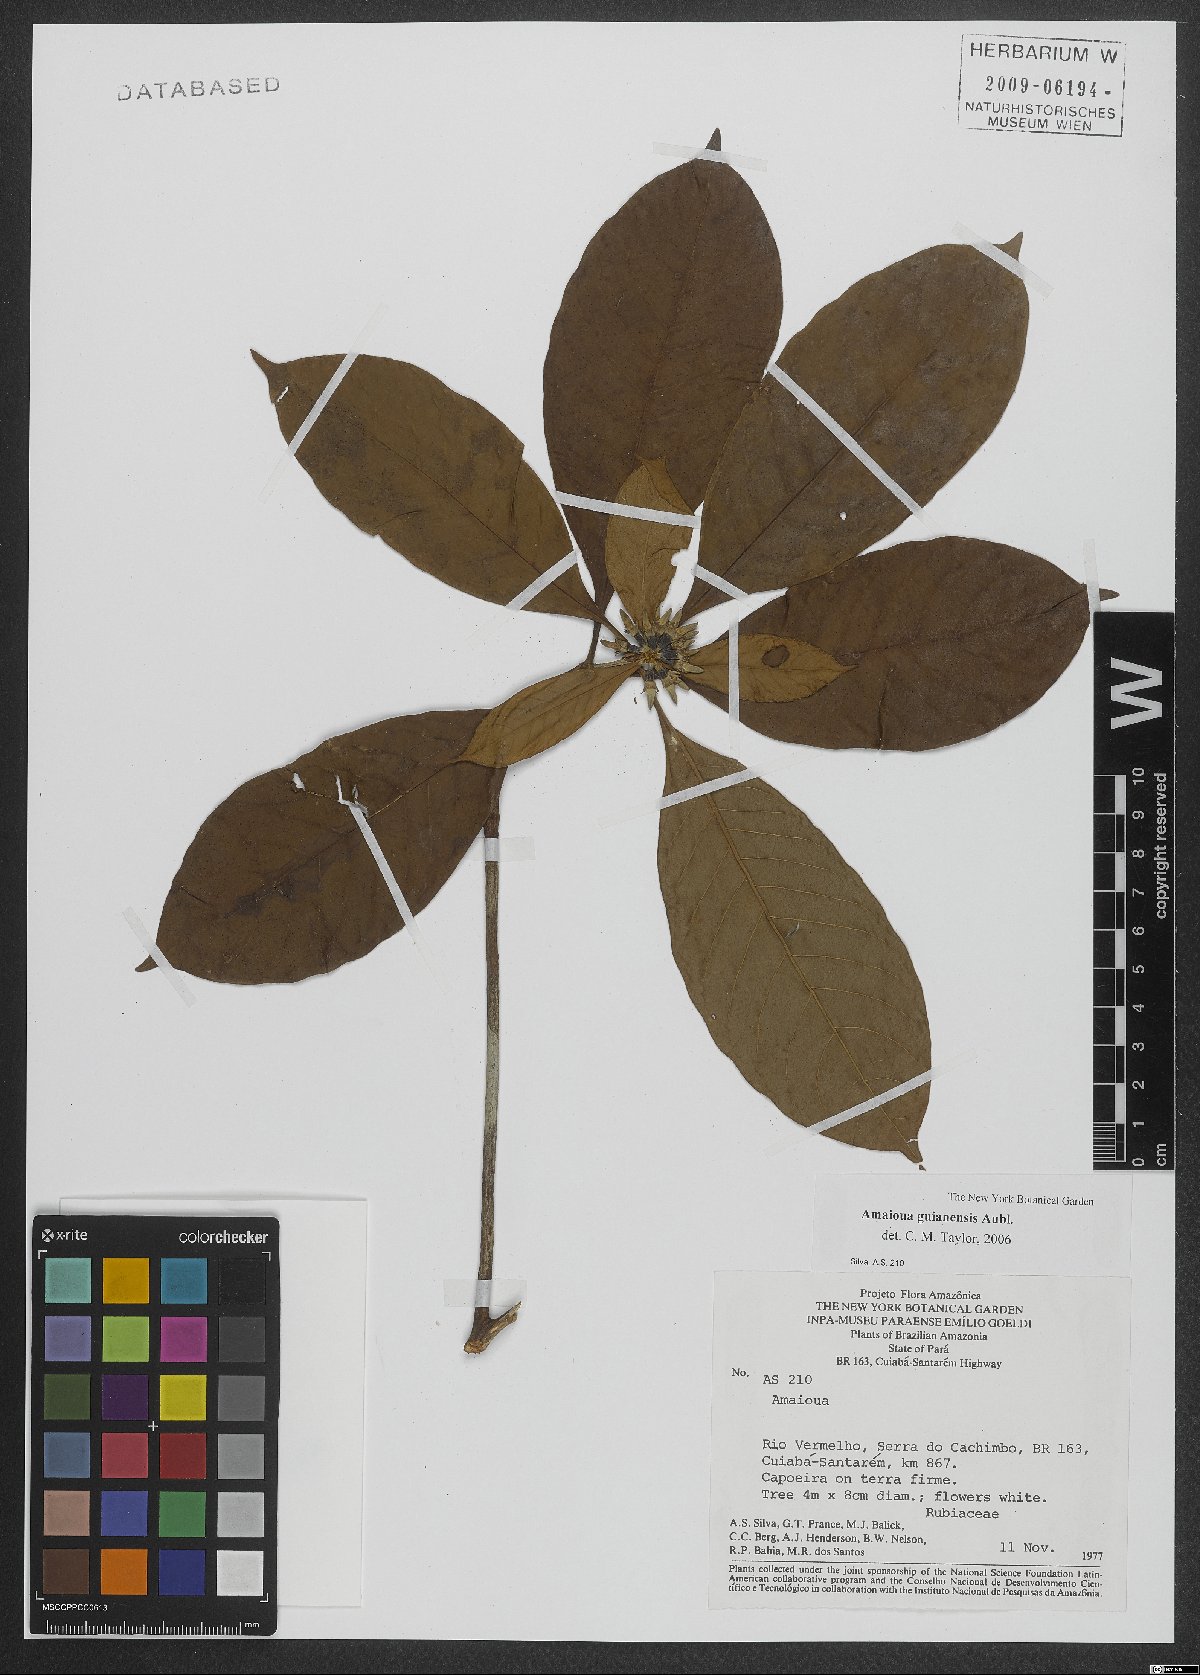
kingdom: Plantae
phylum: Tracheophyta
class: Magnoliopsida
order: Gentianales
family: Rubiaceae
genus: Amaioua
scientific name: Amaioua guianensis
